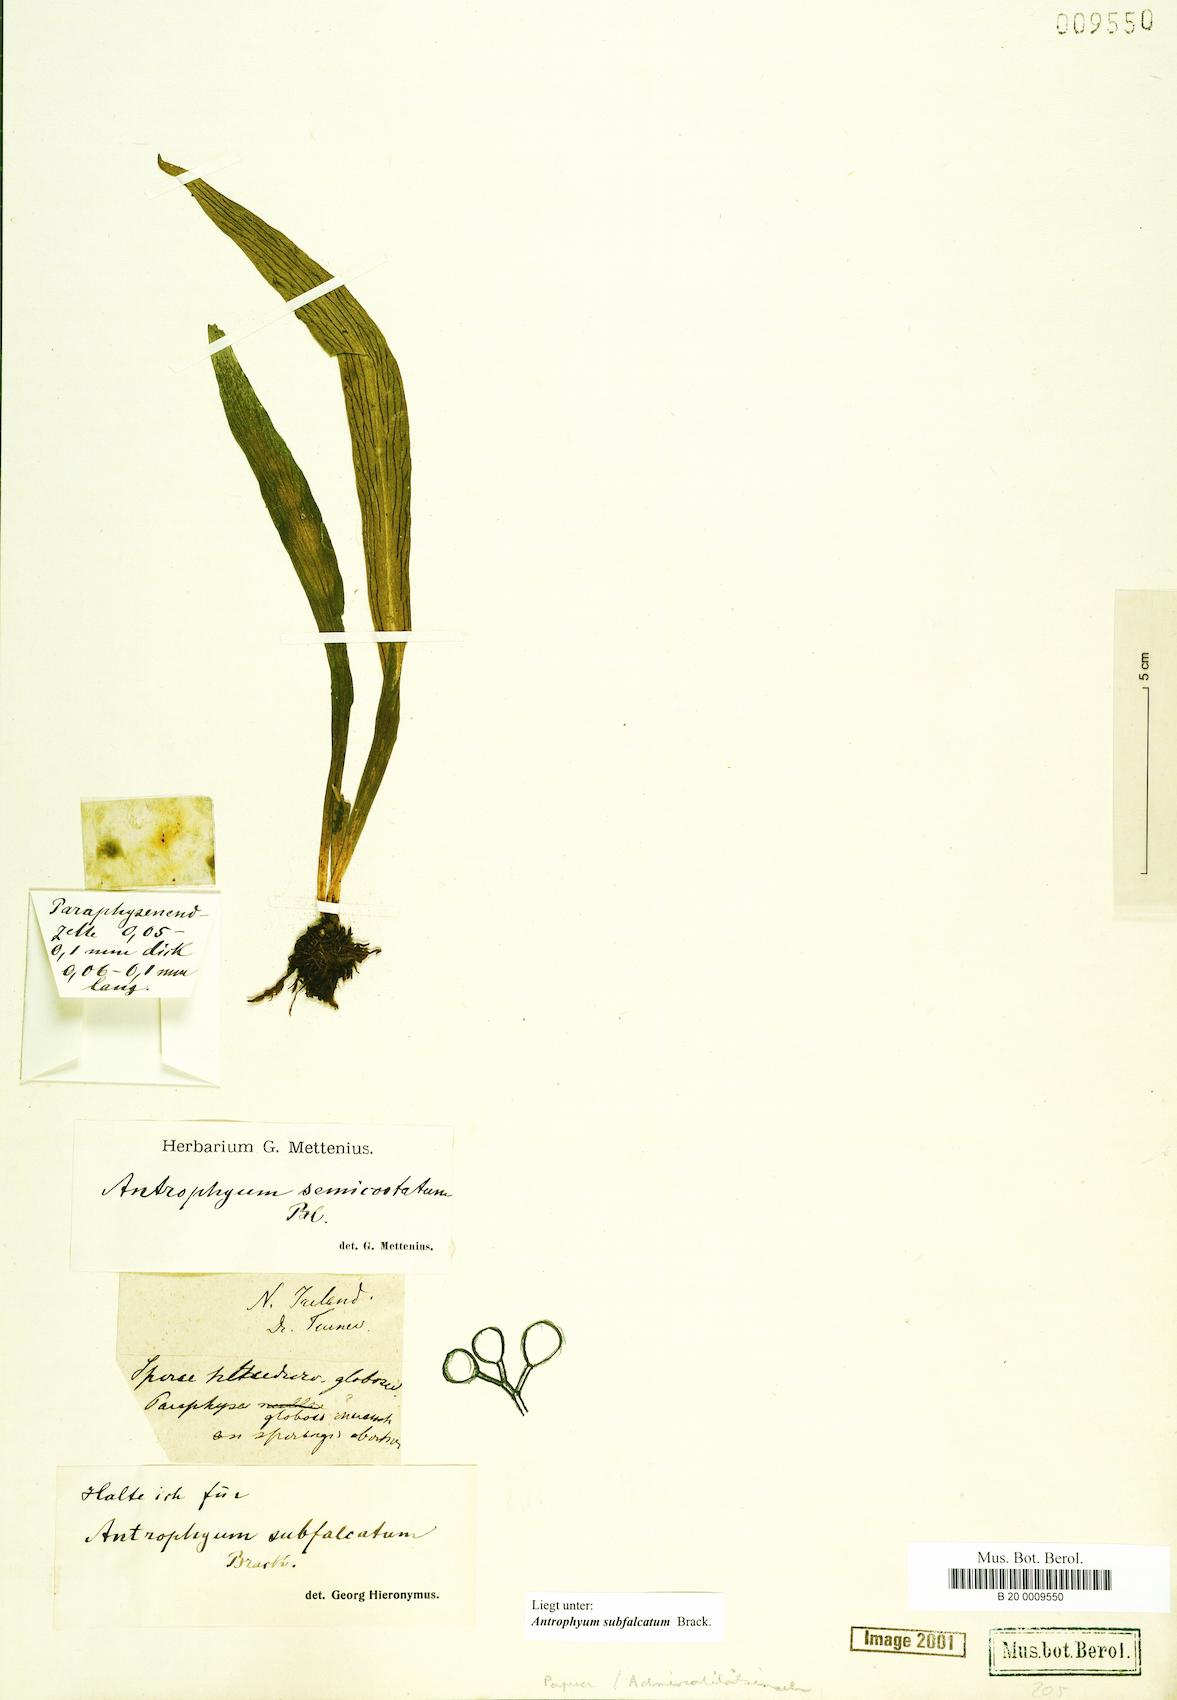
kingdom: Plantae
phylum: Tracheophyta
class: Polypodiopsida
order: Polypodiales
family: Pteridaceae
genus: Antrophyum
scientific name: Antrophyum subfalcatum
